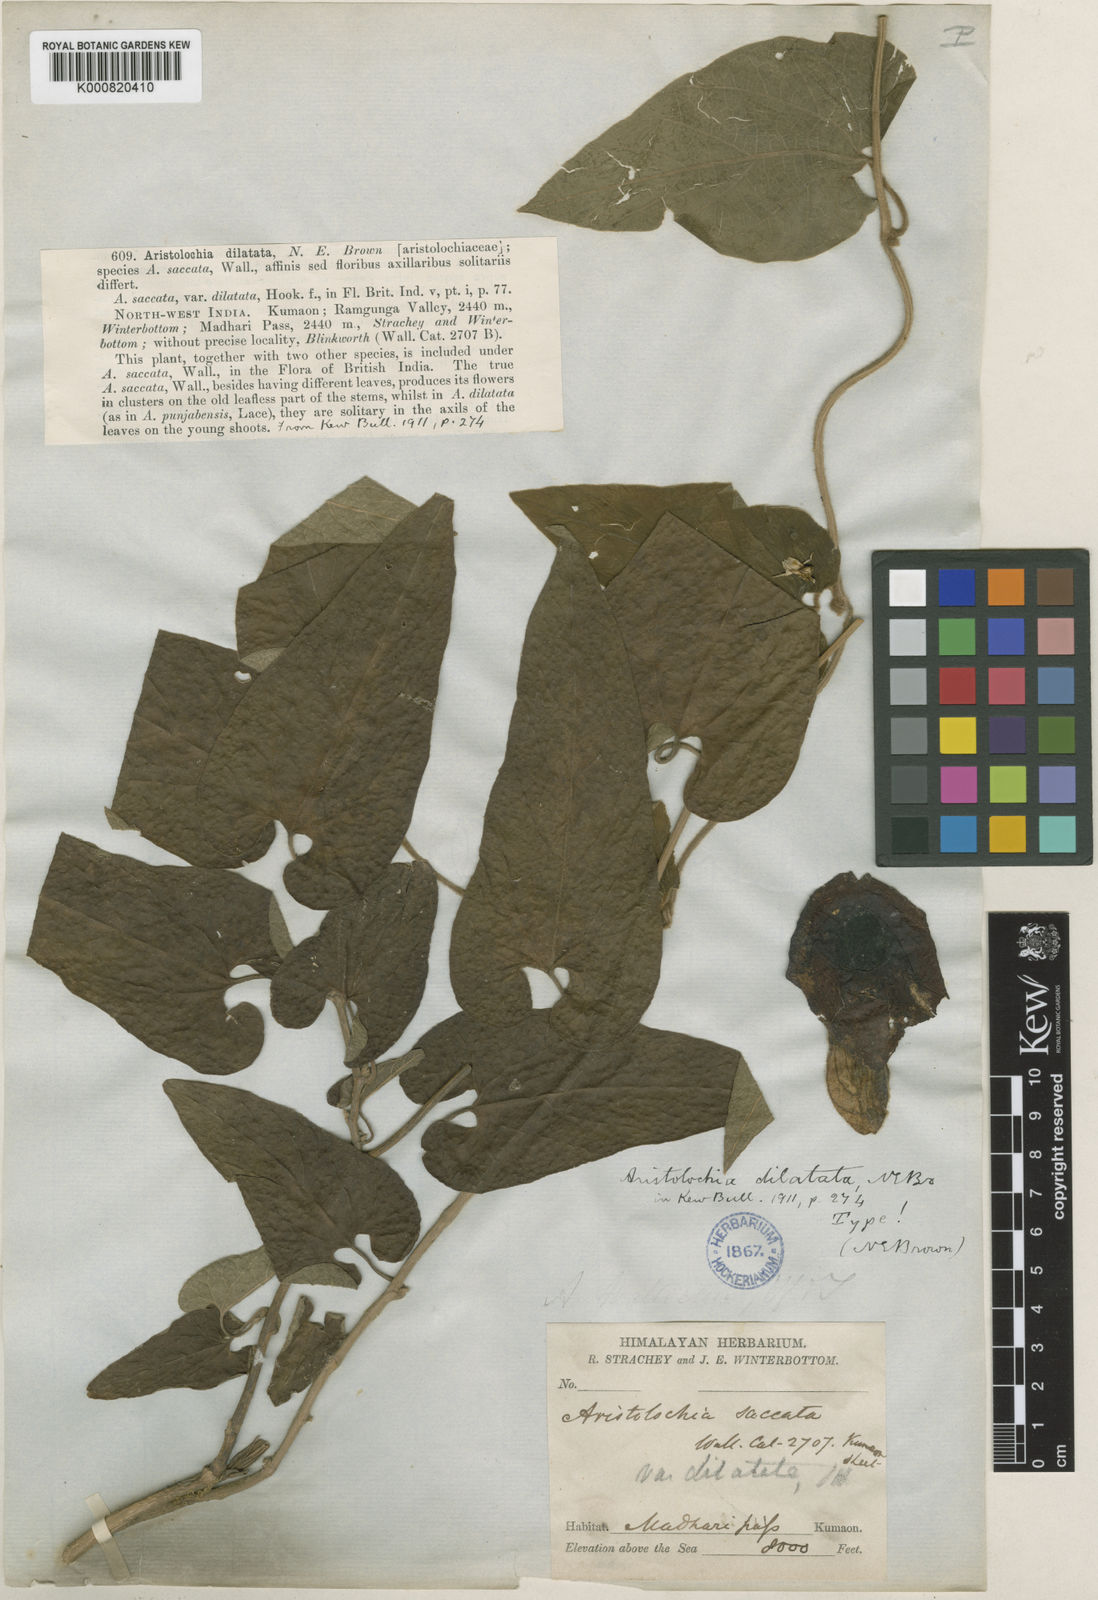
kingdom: Plantae
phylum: Tracheophyta
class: Magnoliopsida
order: Piperales
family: Aristolochiaceae
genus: Isotrema
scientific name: Isotrema
